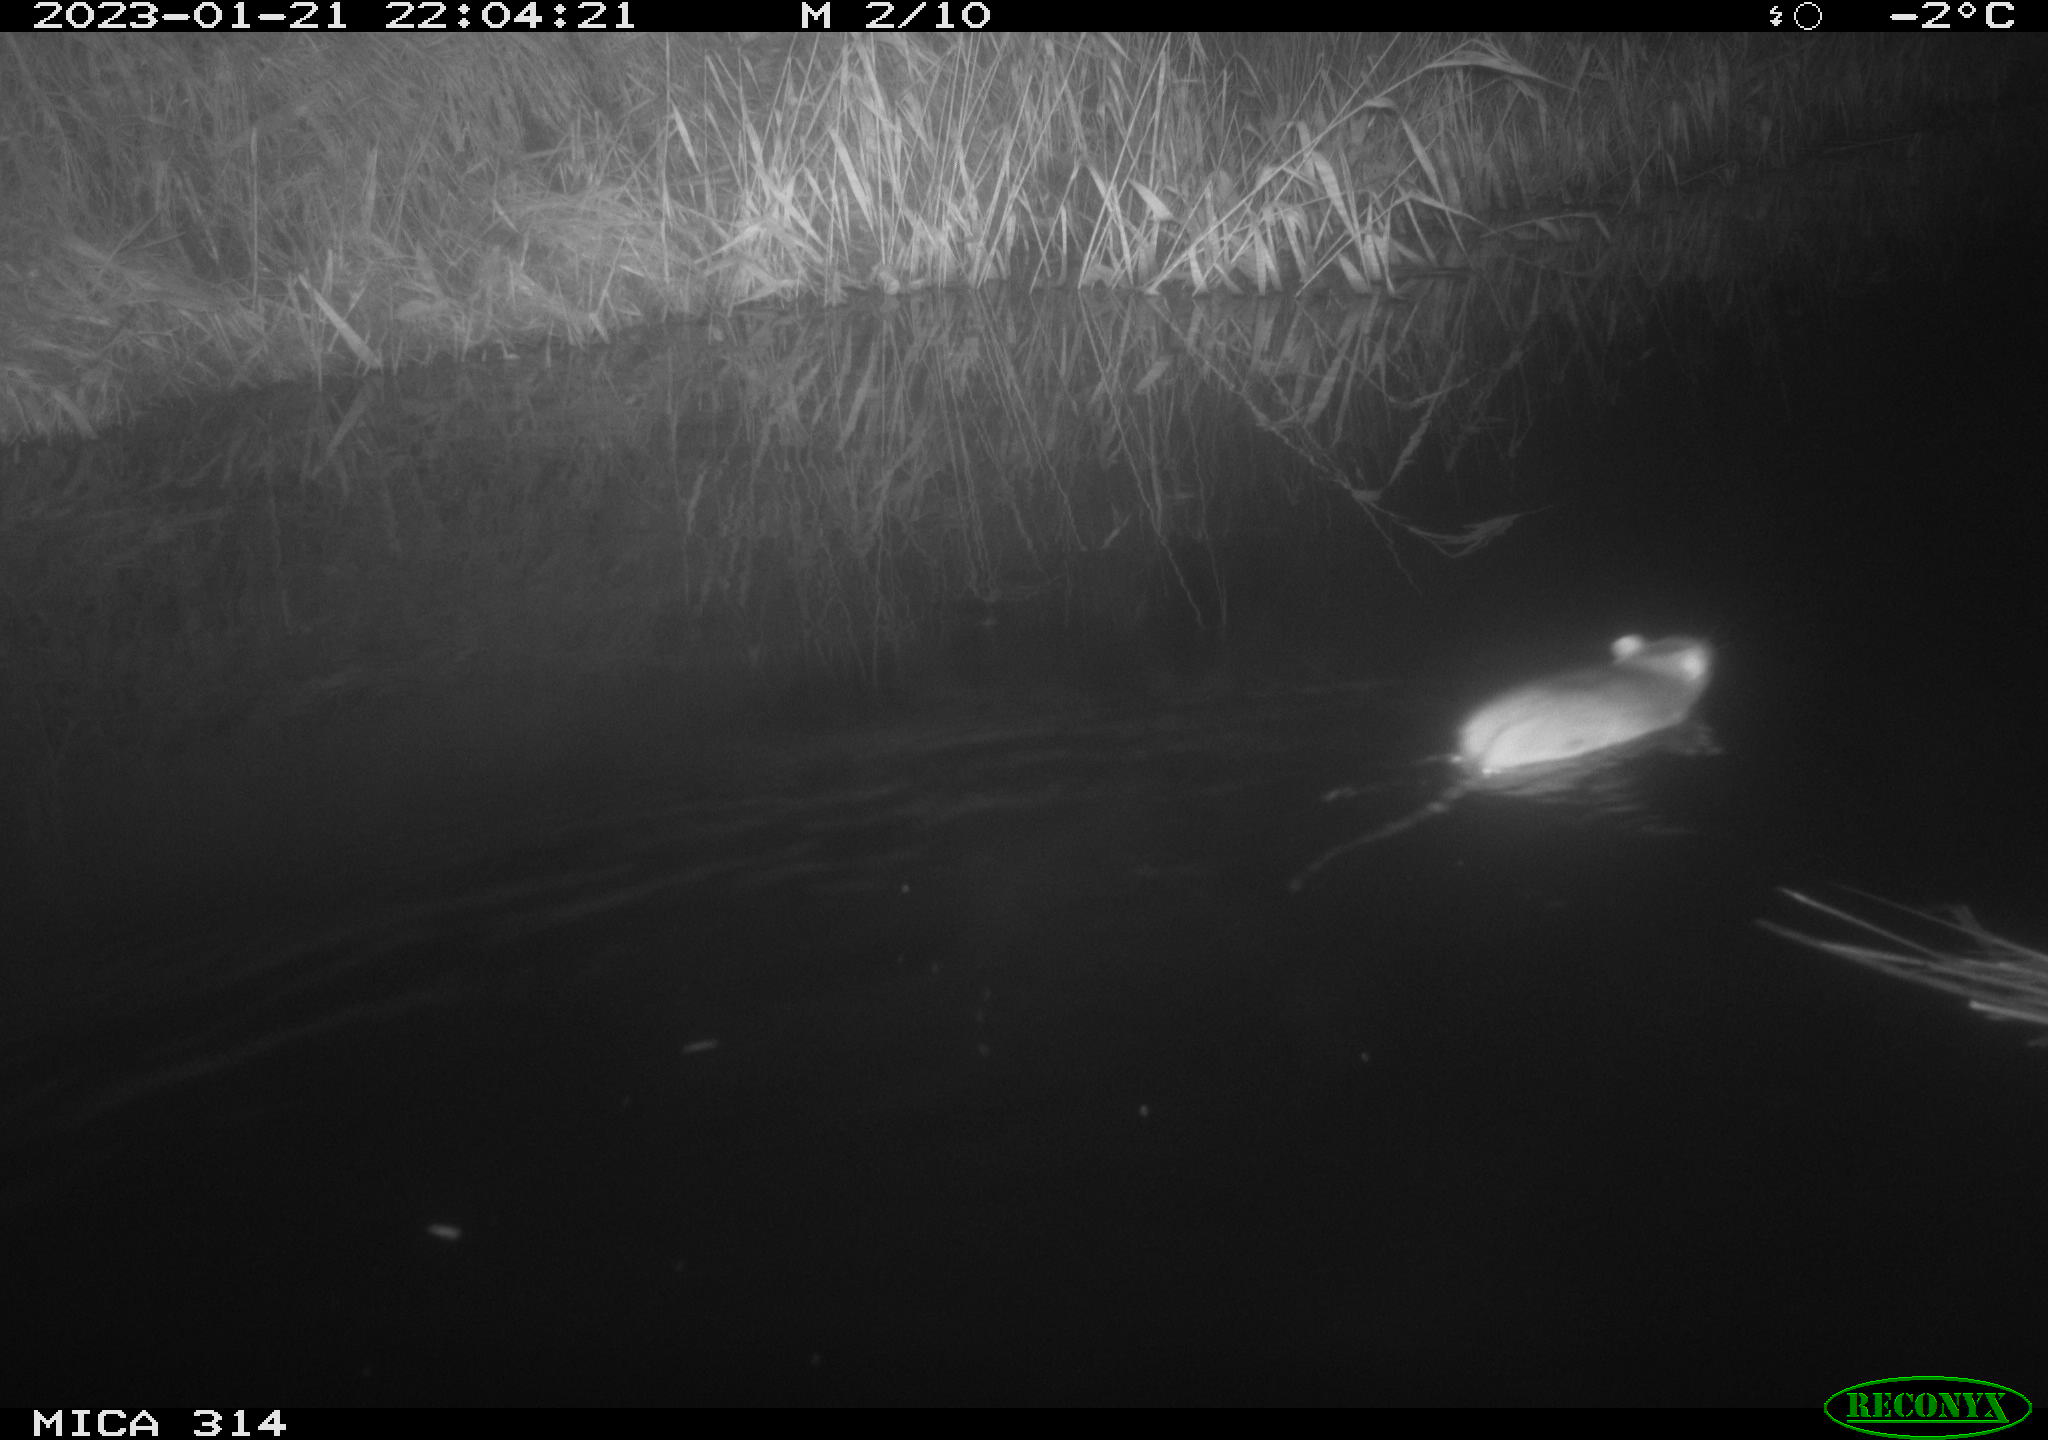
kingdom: Animalia
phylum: Chordata
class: Mammalia
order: Rodentia
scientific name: Rodentia
